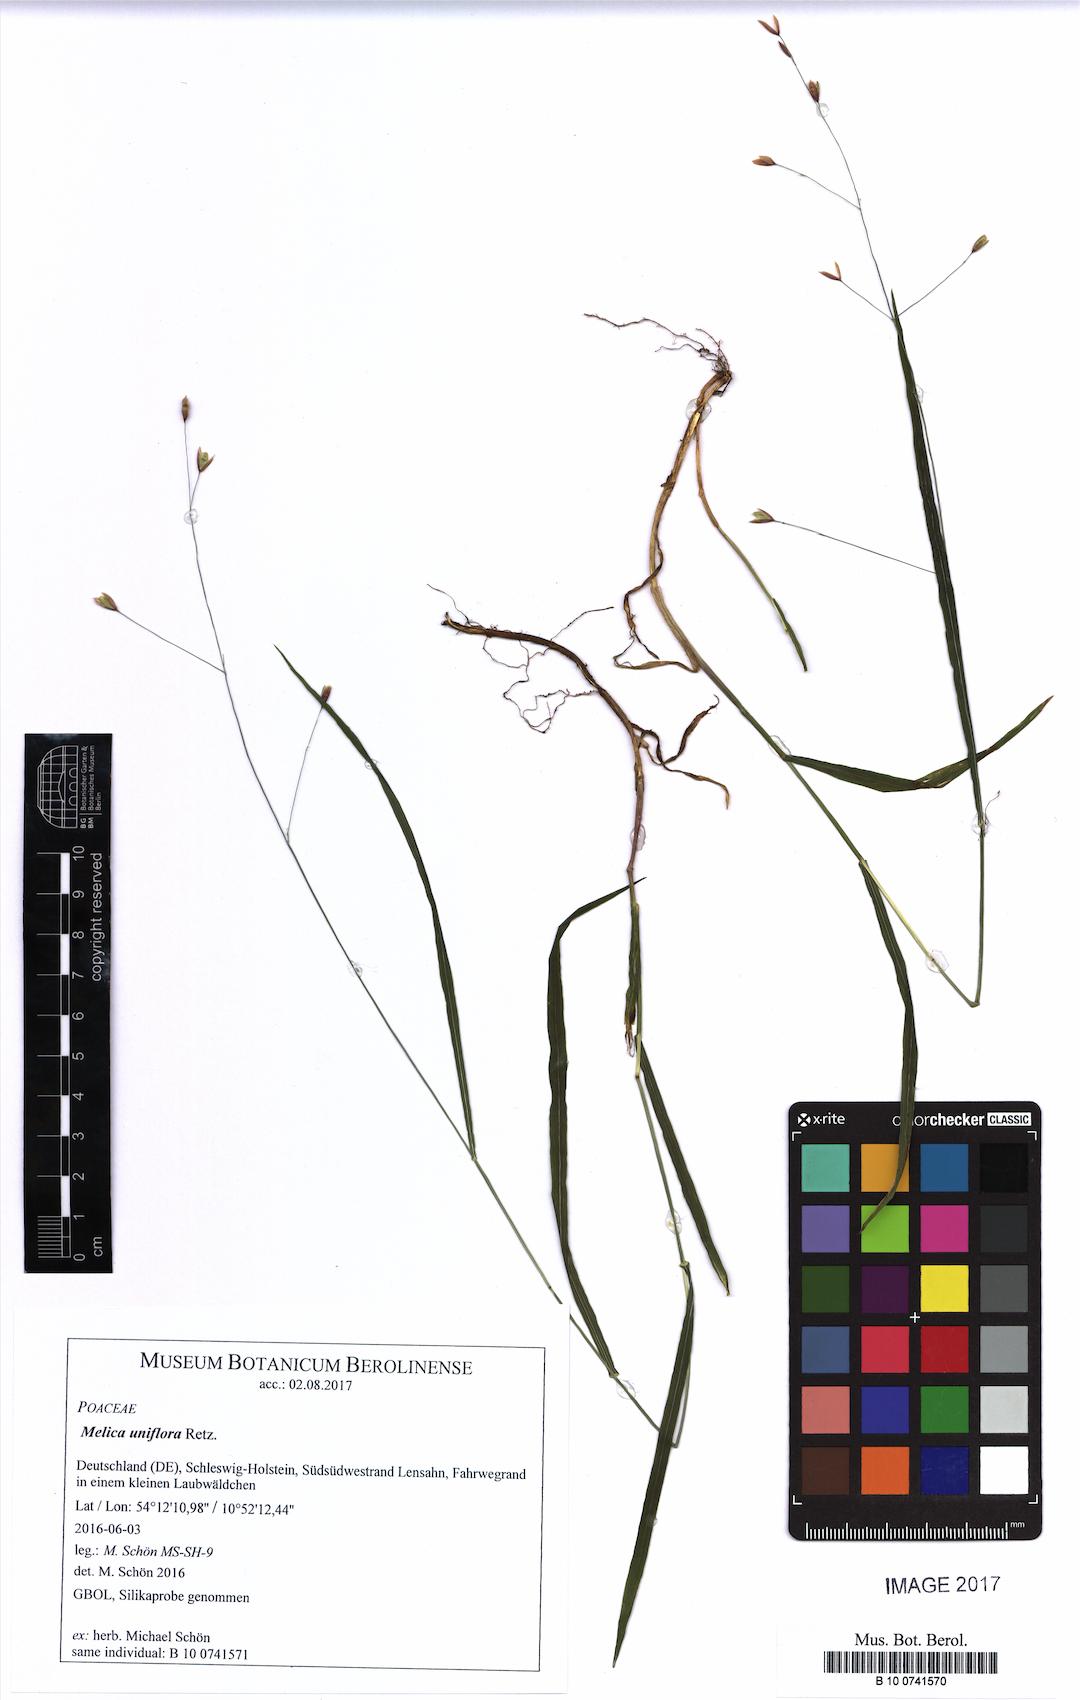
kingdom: Plantae
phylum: Tracheophyta
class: Liliopsida
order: Poales
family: Poaceae
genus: Melica
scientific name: Melica uniflora
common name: Wood melick
